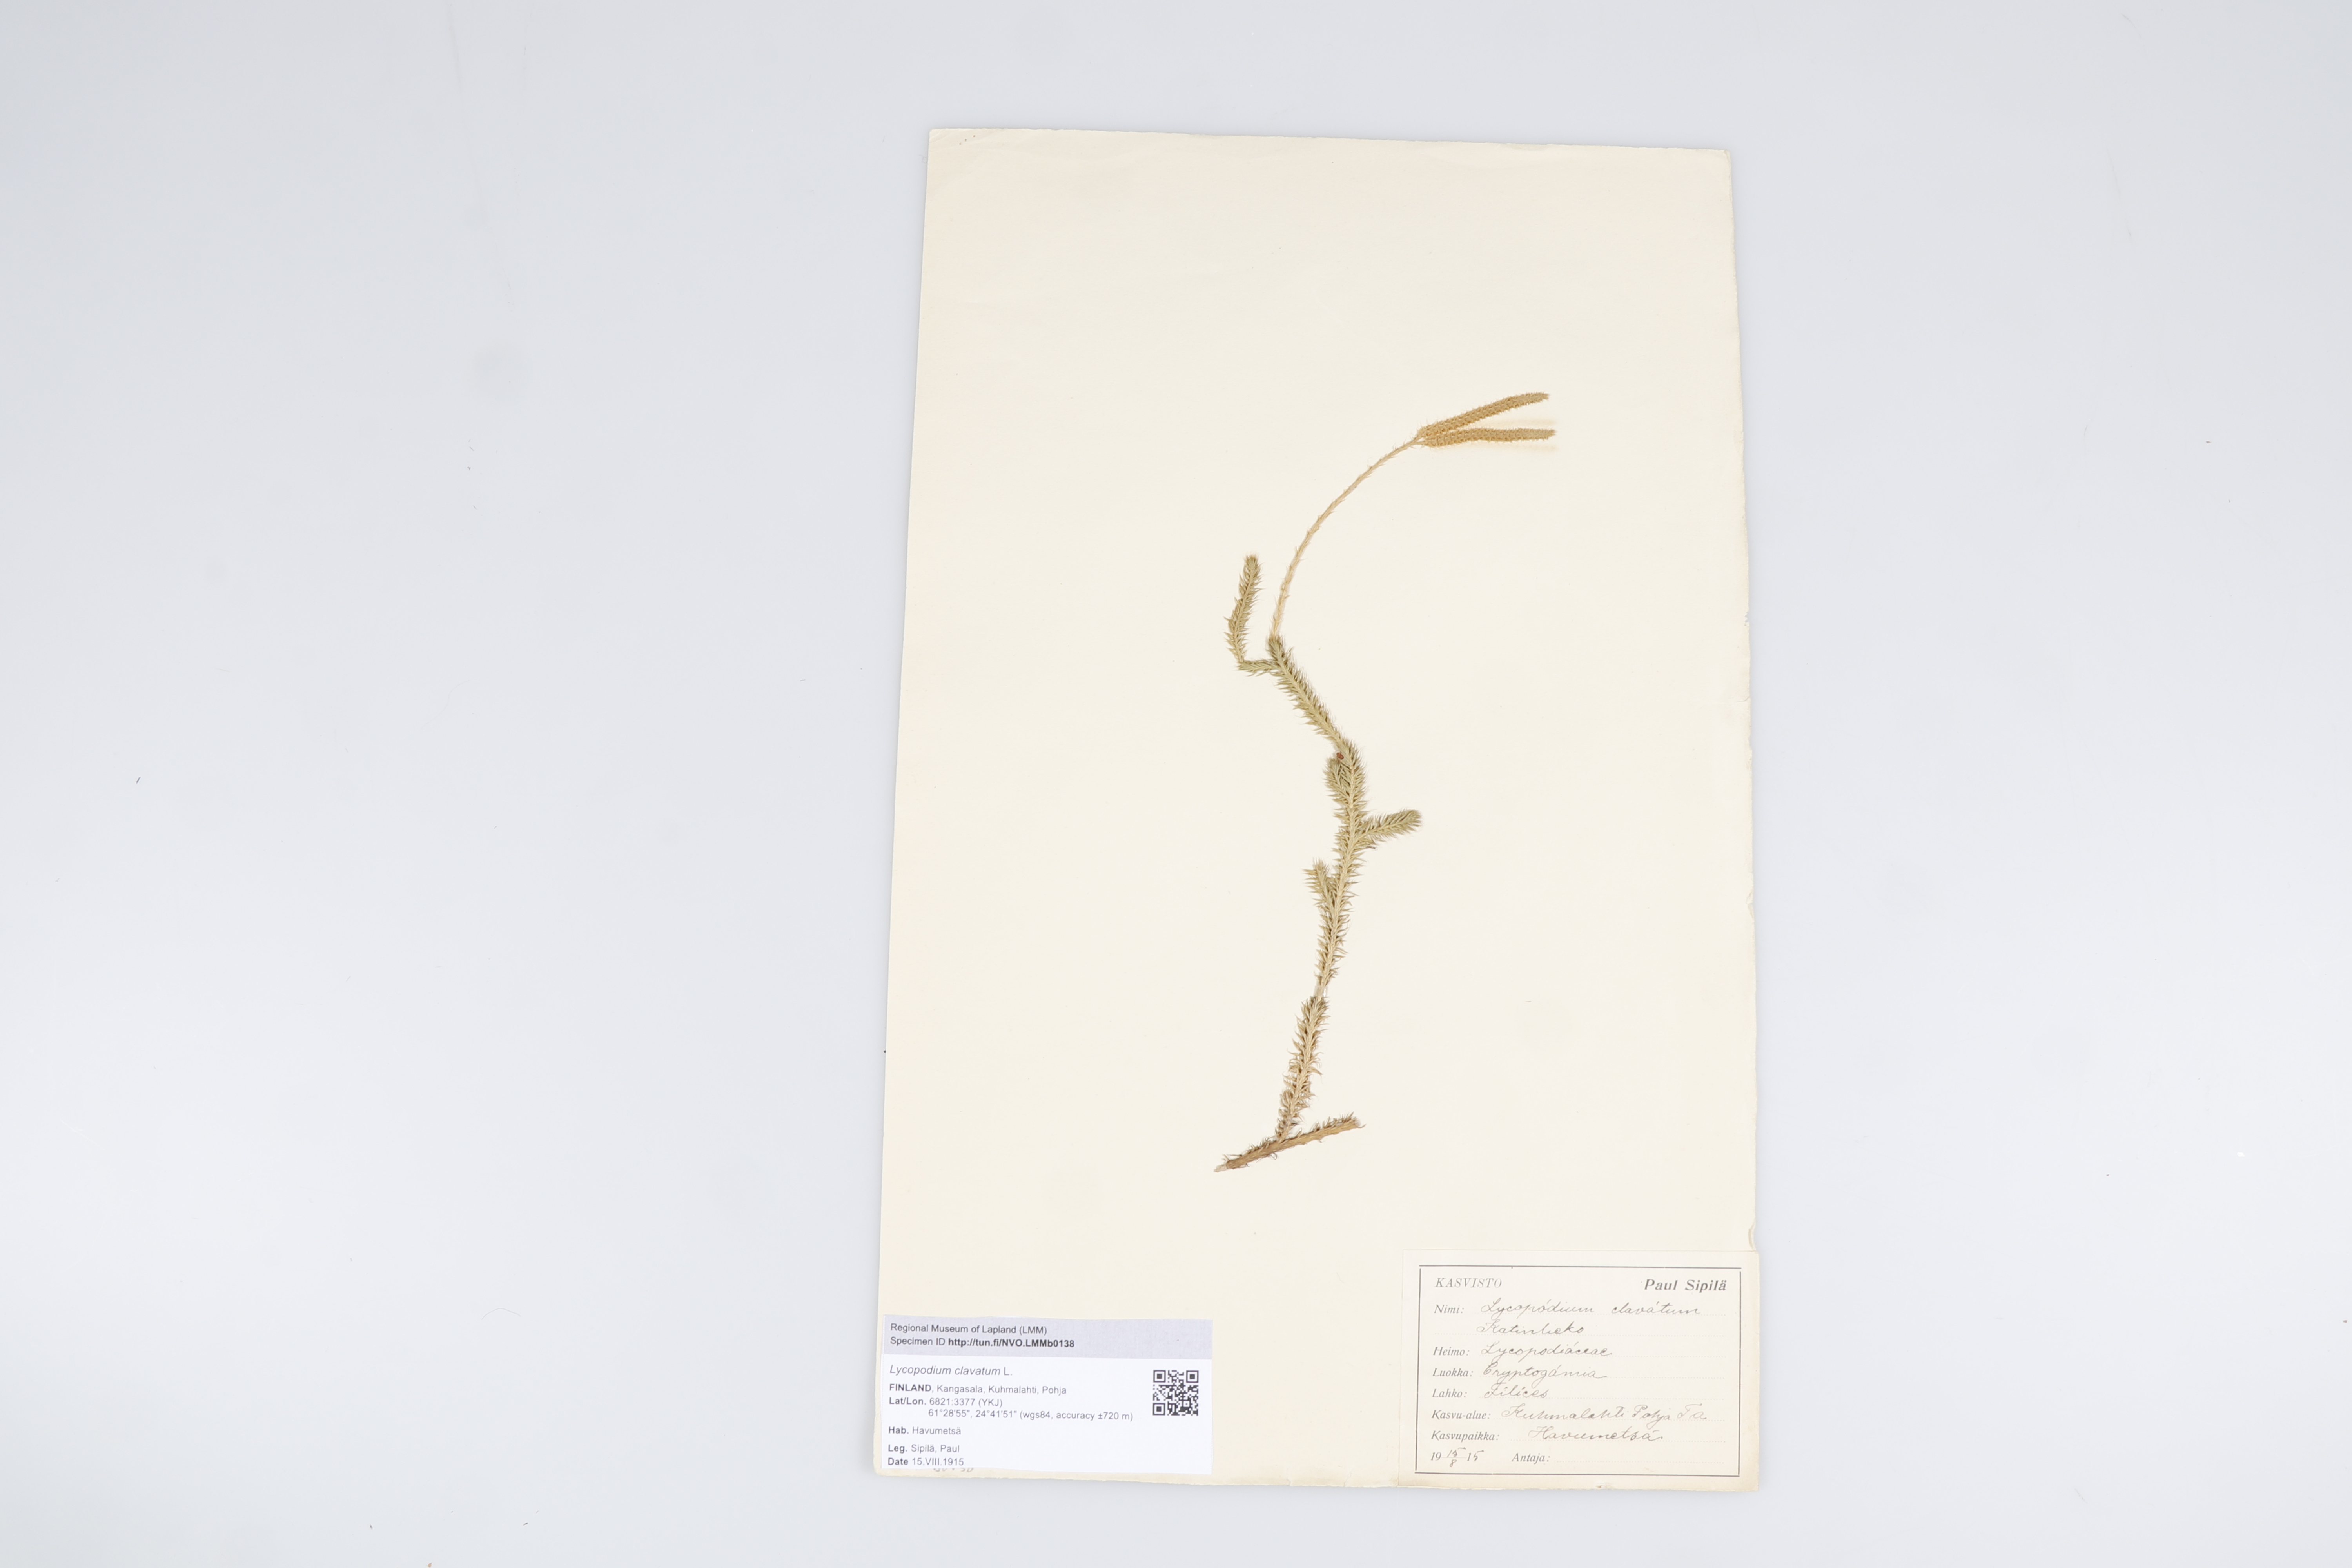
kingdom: Plantae
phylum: Tracheophyta
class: Lycopodiopsida
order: Lycopodiales
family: Lycopodiaceae
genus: Lycopodium
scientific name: Lycopodium clavatum
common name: Stag's-horn clubmoss
